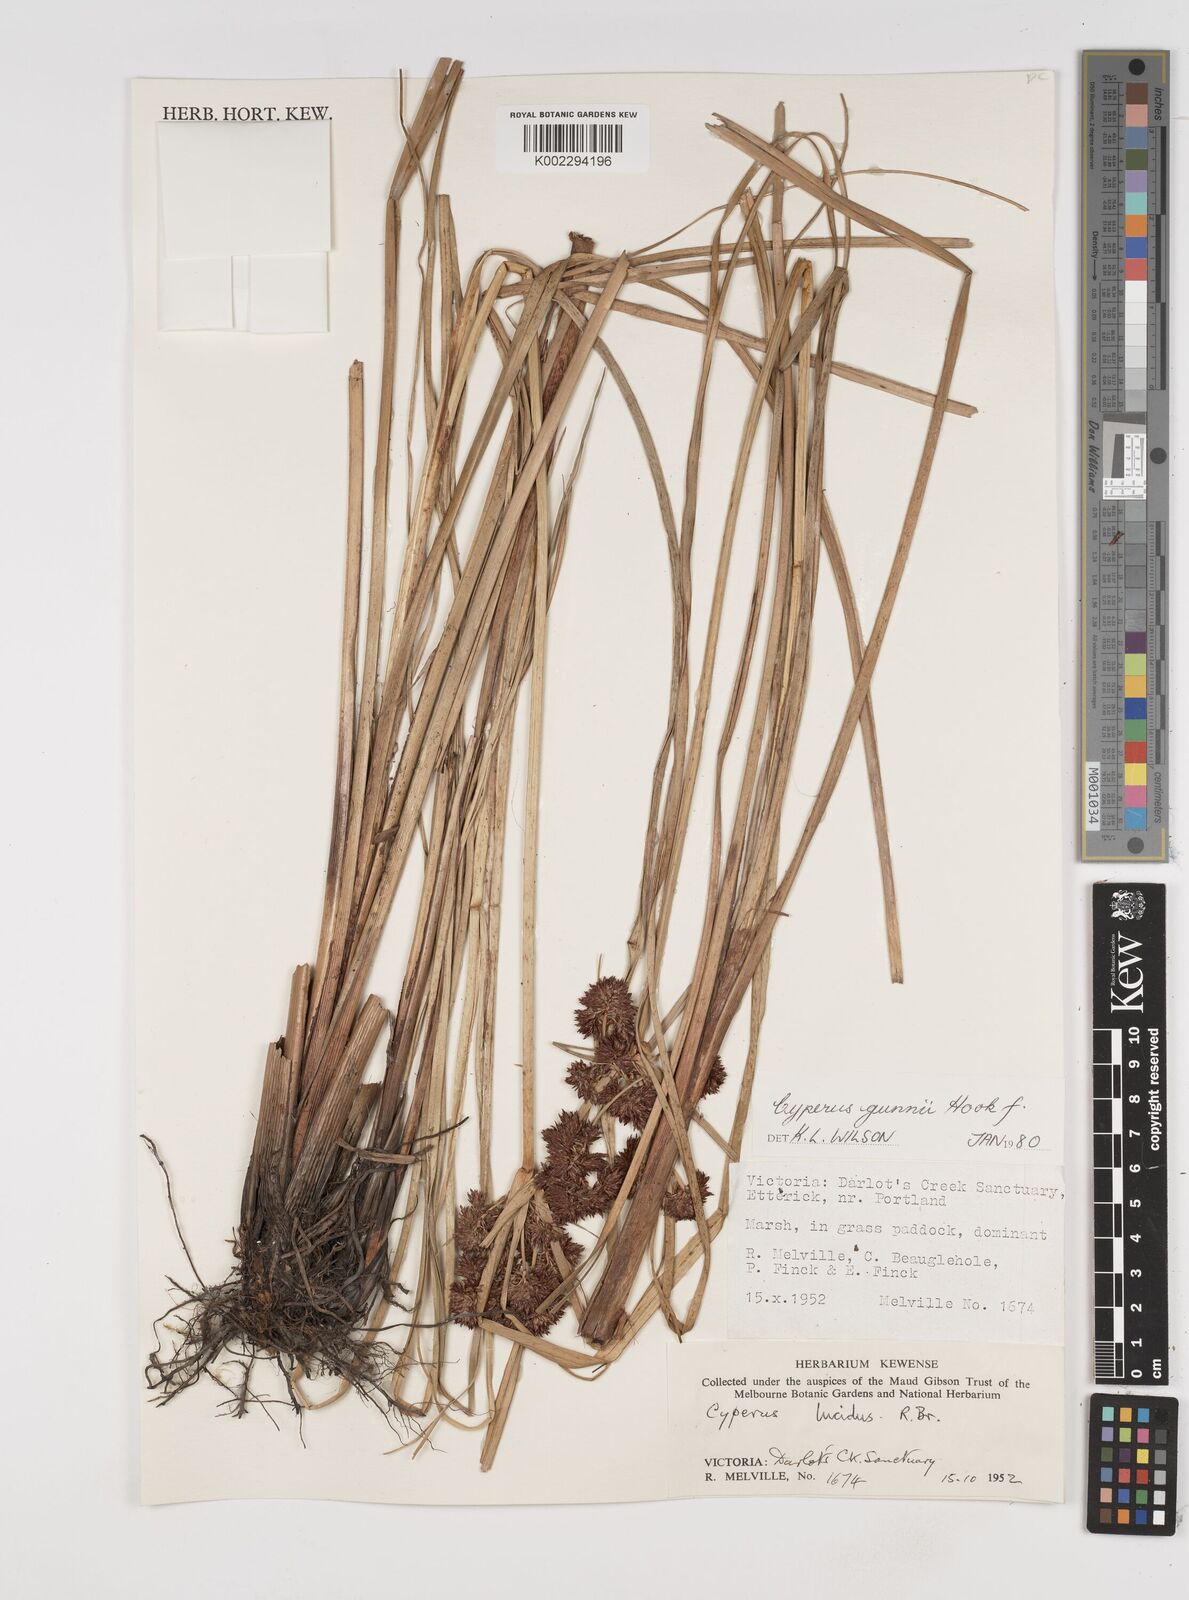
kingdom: Plantae
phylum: Tracheophyta
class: Liliopsida
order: Poales
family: Cyperaceae
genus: Cyperus
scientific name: Cyperus gunnii
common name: Flecked flat-sedge
